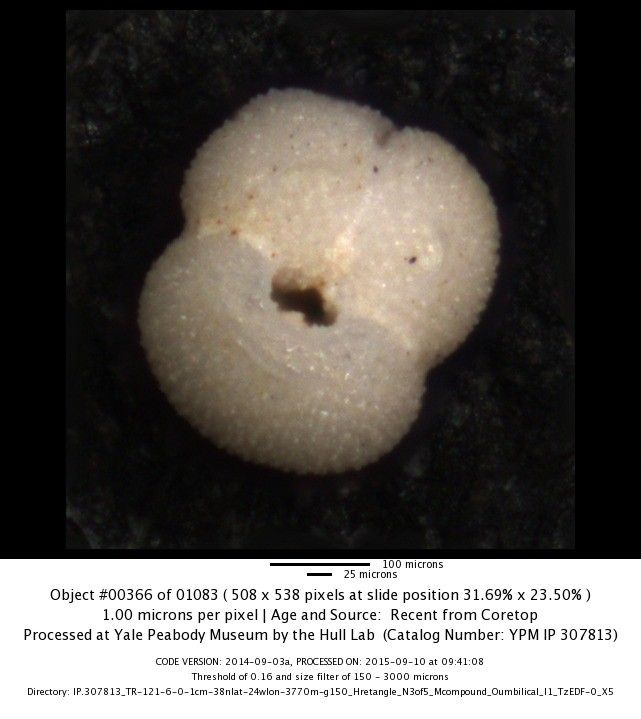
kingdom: Chromista
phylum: Foraminifera
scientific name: Foraminifera
